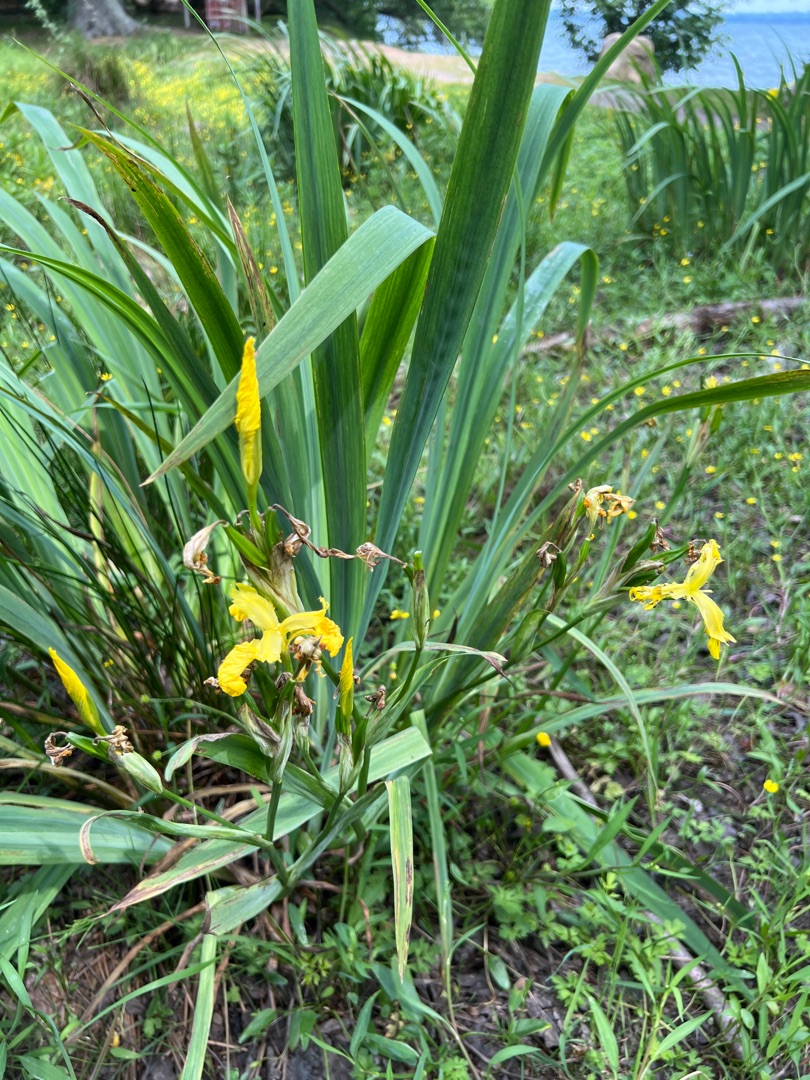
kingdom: Plantae
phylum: Tracheophyta
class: Liliopsida
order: Asparagales
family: Iridaceae
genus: Iris
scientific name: Iris pseudacorus
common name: Gul iris
